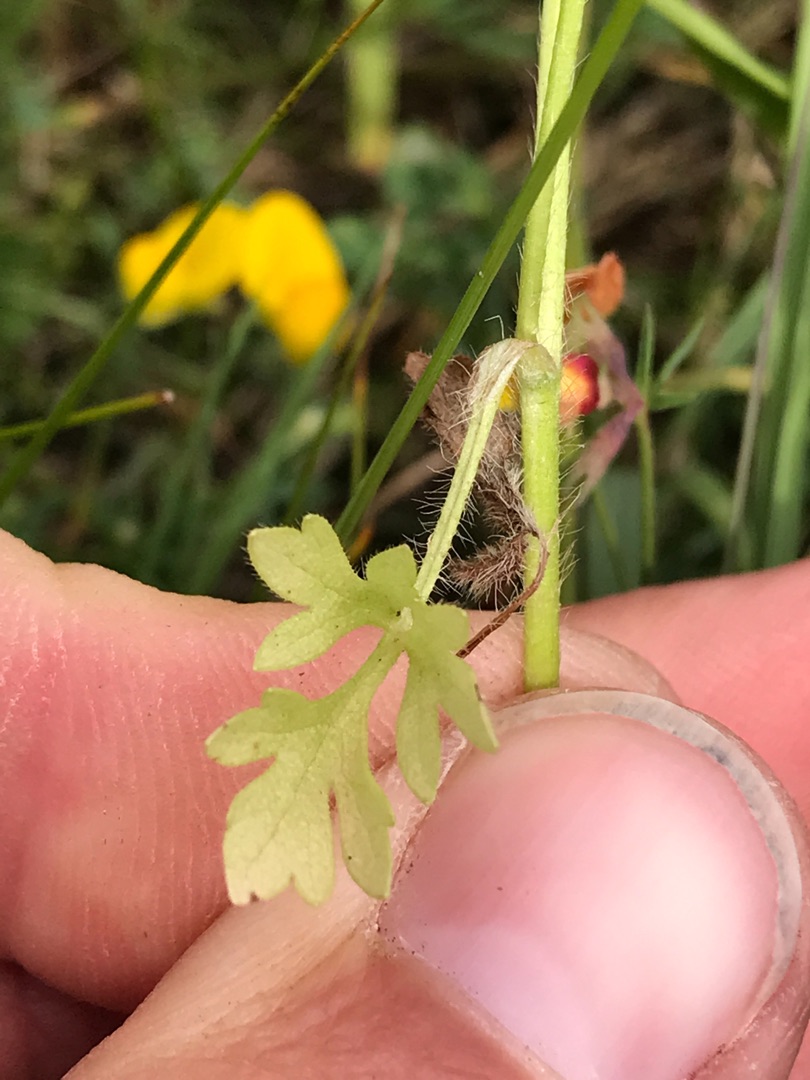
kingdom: Plantae
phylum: Tracheophyta
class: Magnoliopsida
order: Ranunculales
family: Ranunculaceae
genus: Ranunculus
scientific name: Ranunculus sardous
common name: Stivhåret ranunkel
